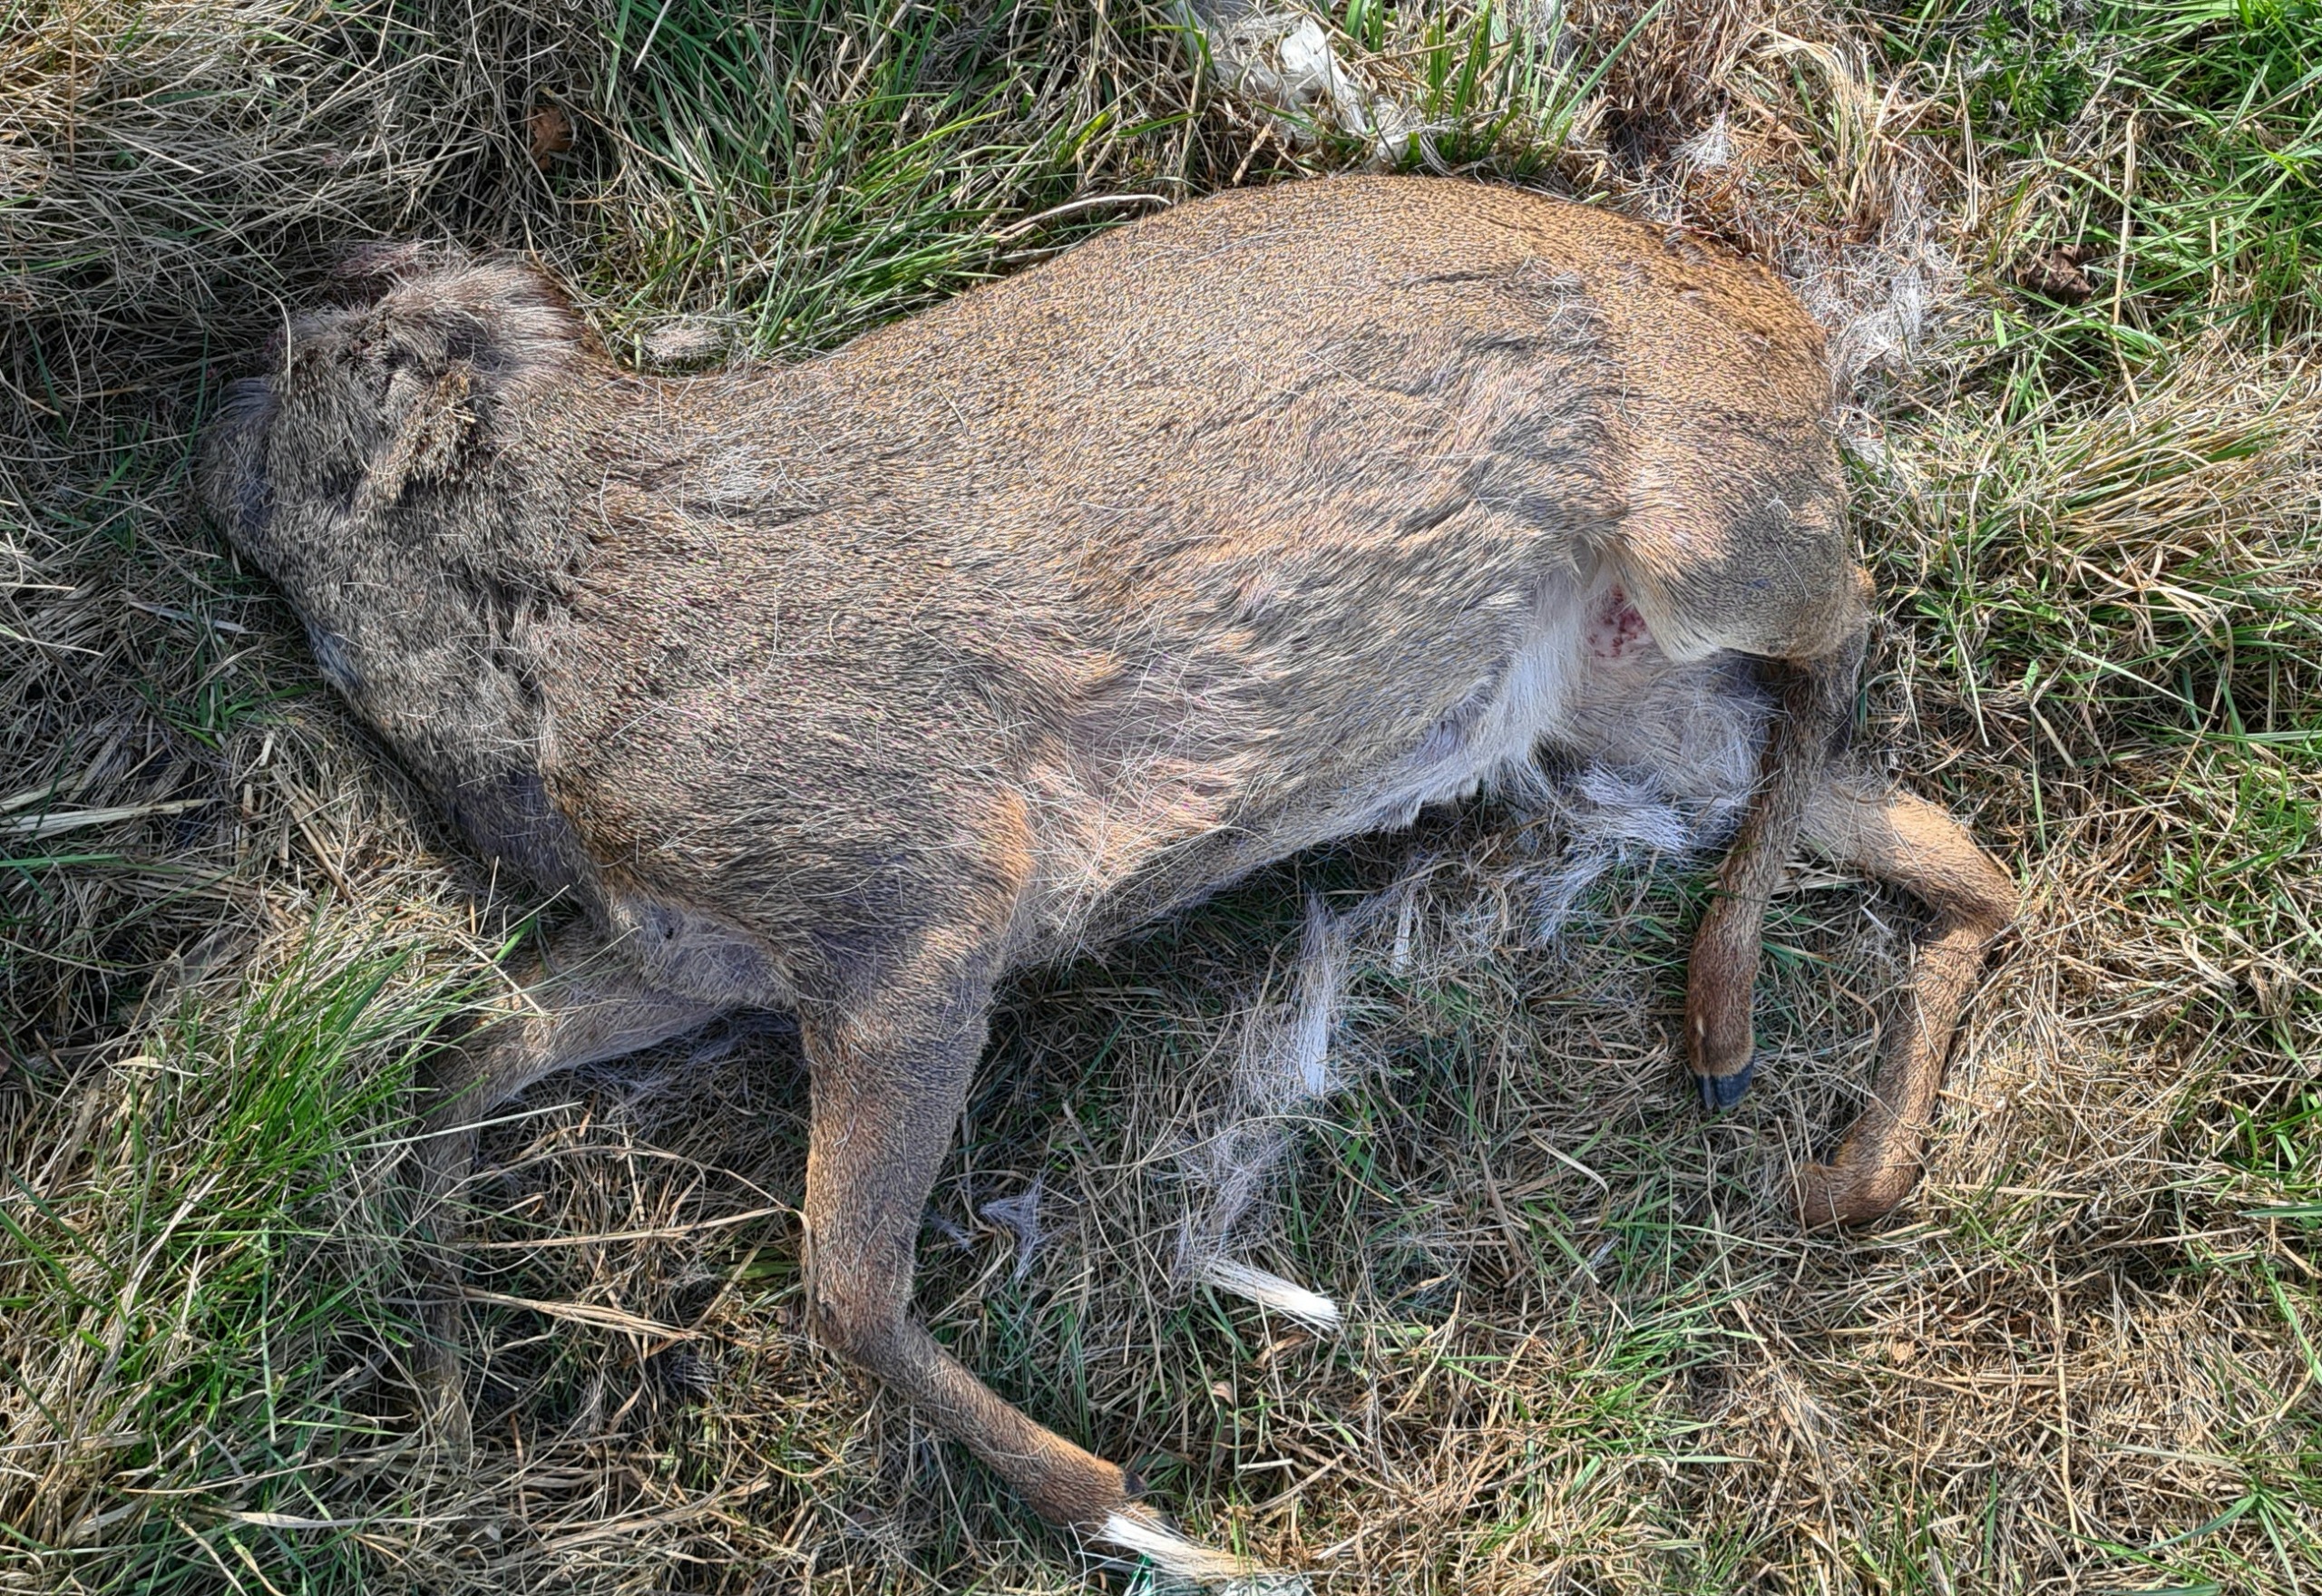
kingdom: Animalia
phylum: Chordata
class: Mammalia
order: Artiodactyla
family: Cervidae
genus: Capreolus
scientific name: Capreolus capreolus
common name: Rådyr
